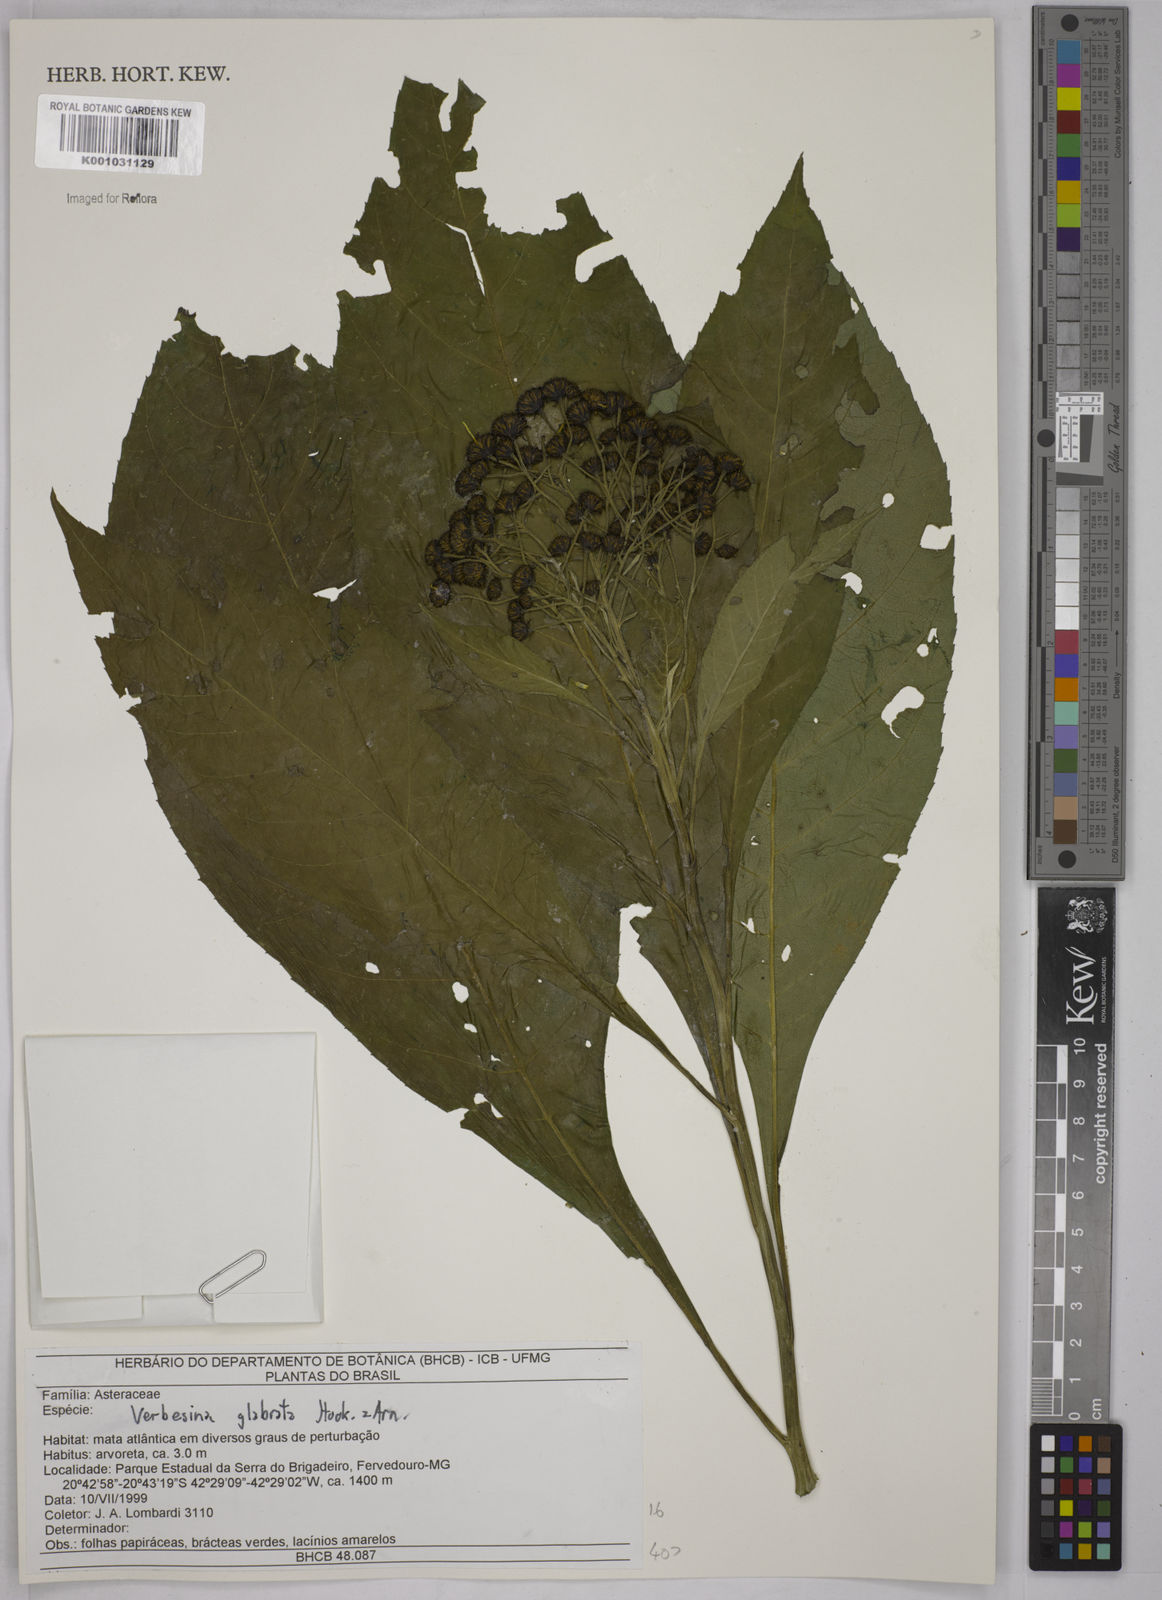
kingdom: Plantae
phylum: Tracheophyta
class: Magnoliopsida
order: Asterales
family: Asteraceae
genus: Verbesina
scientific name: Verbesina glabrata
